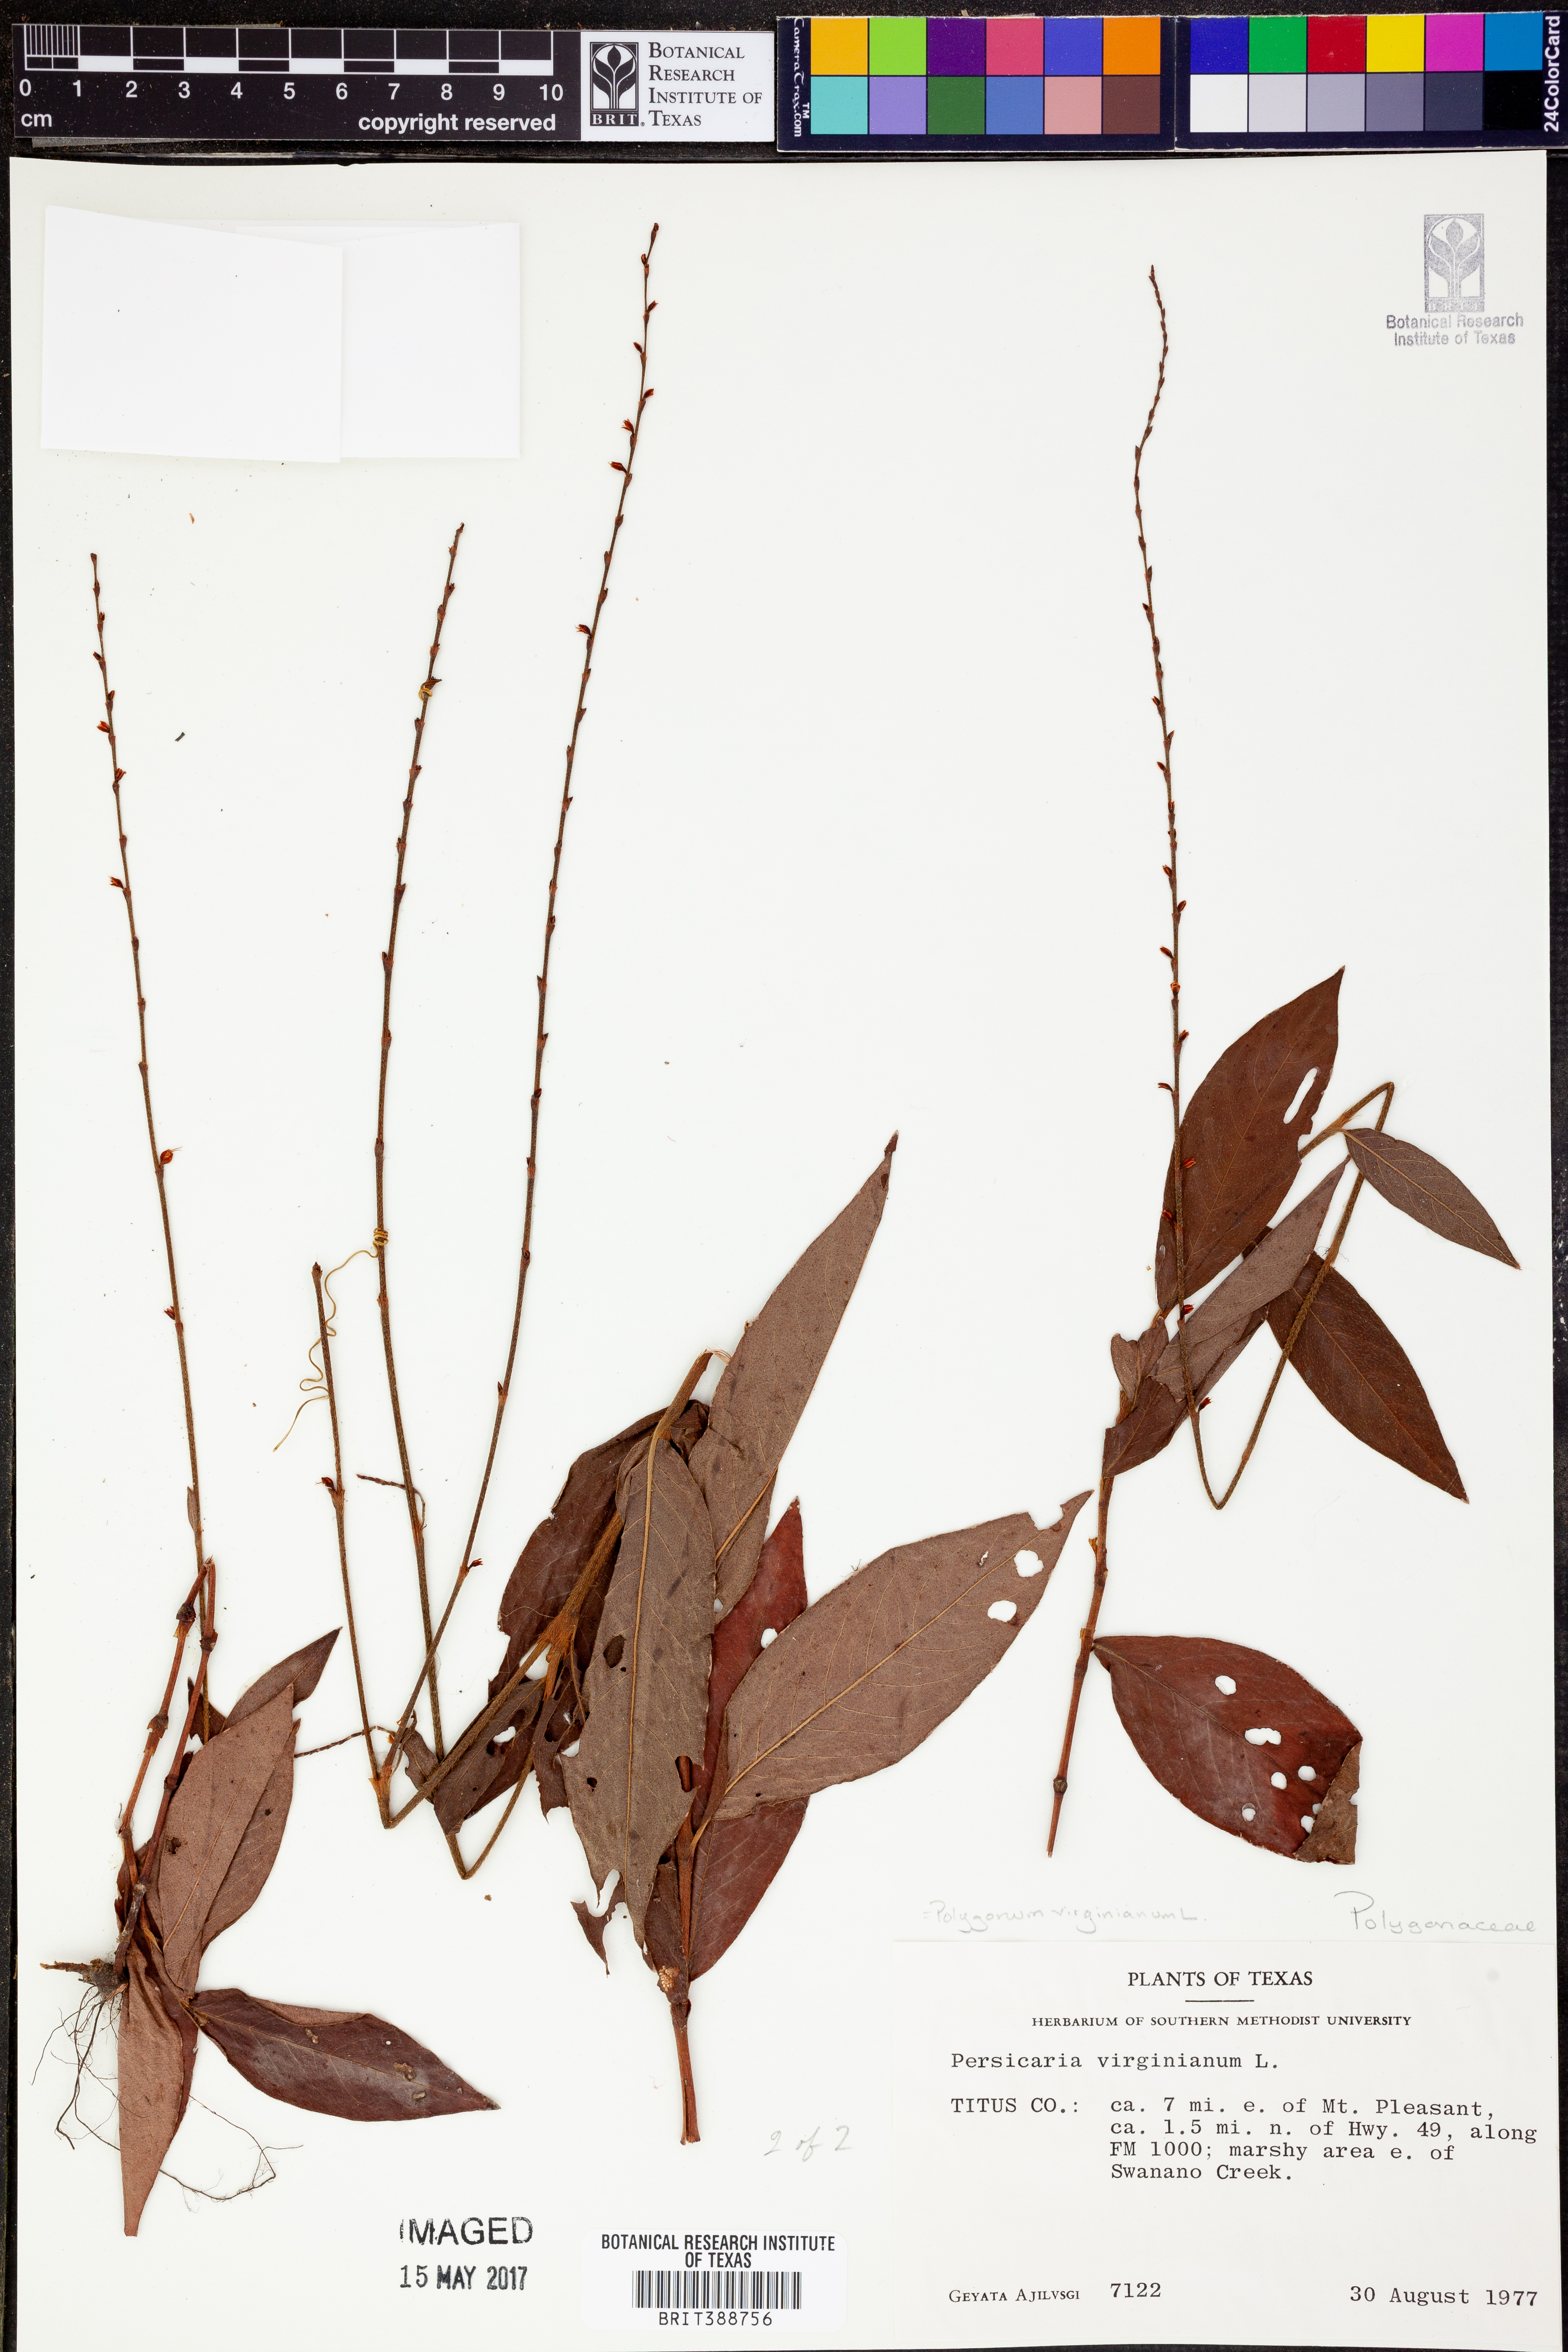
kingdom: Plantae
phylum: Tracheophyta
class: Magnoliopsida
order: Caryophyllales
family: Polygonaceae
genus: Persicaria
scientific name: Persicaria virginiana
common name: Jumpseed
